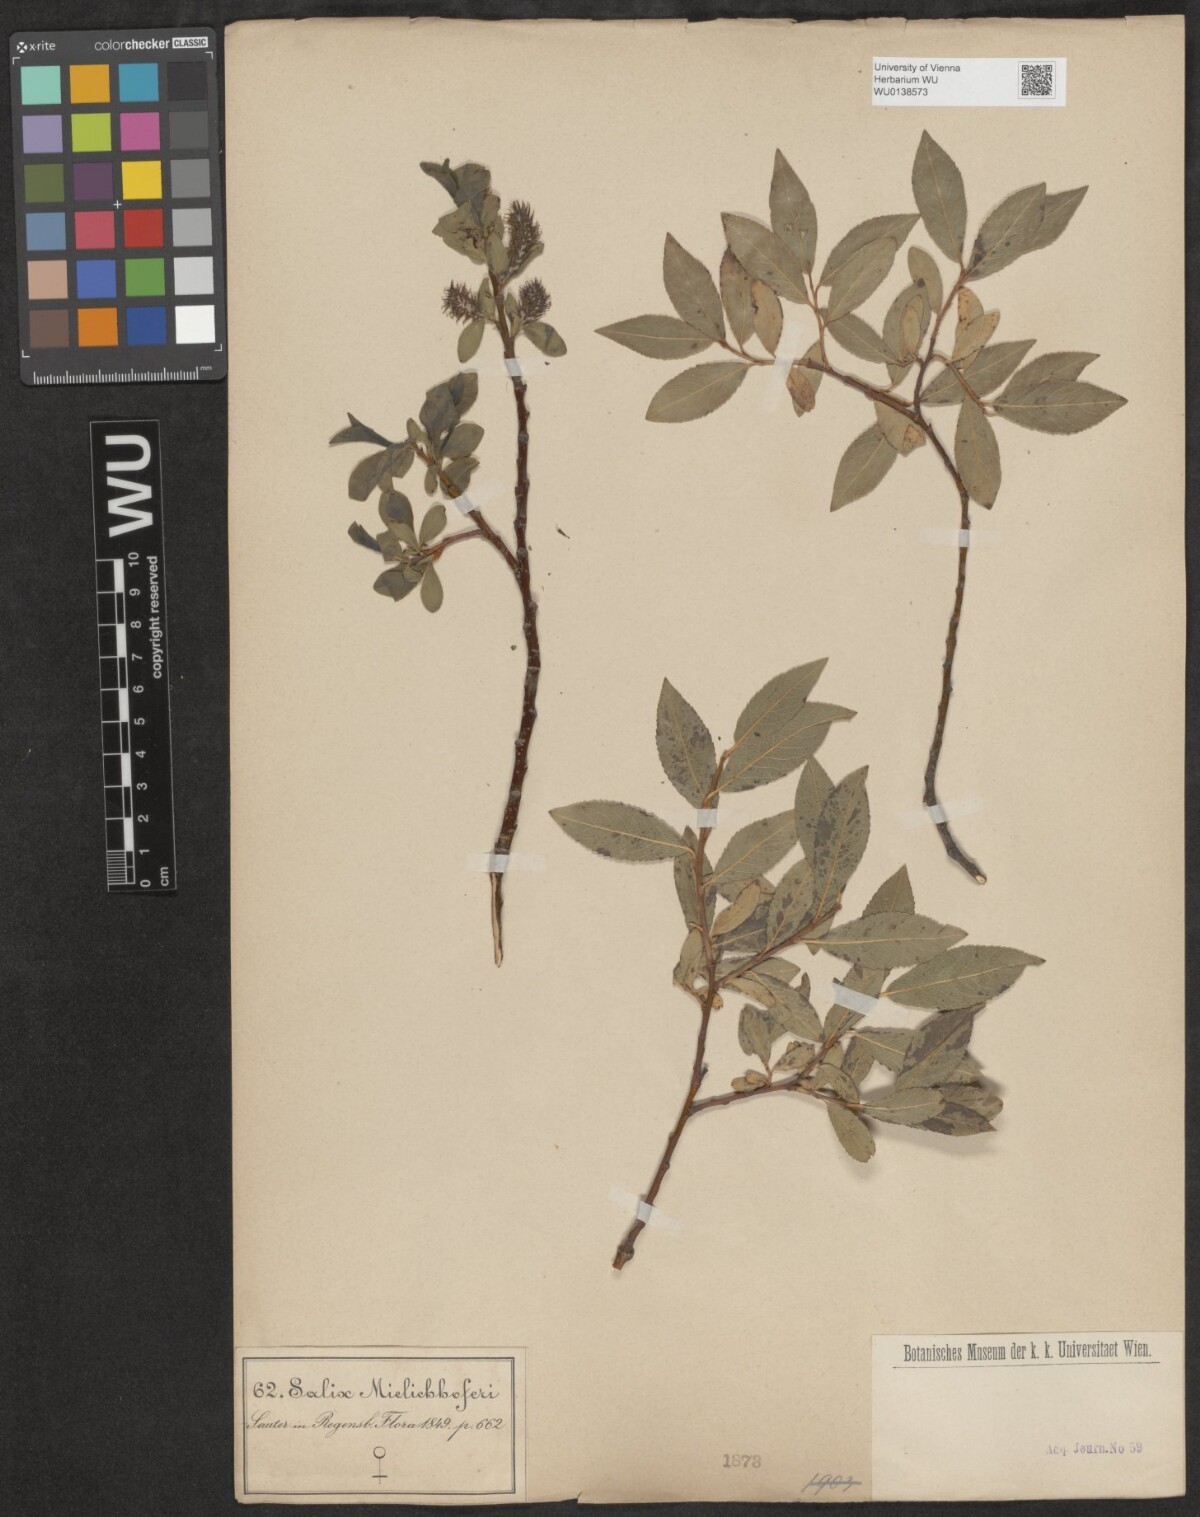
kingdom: Plantae
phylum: Tracheophyta
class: Magnoliopsida
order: Malpighiales
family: Salicaceae
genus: Salix
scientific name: Salix mielichhoferi
